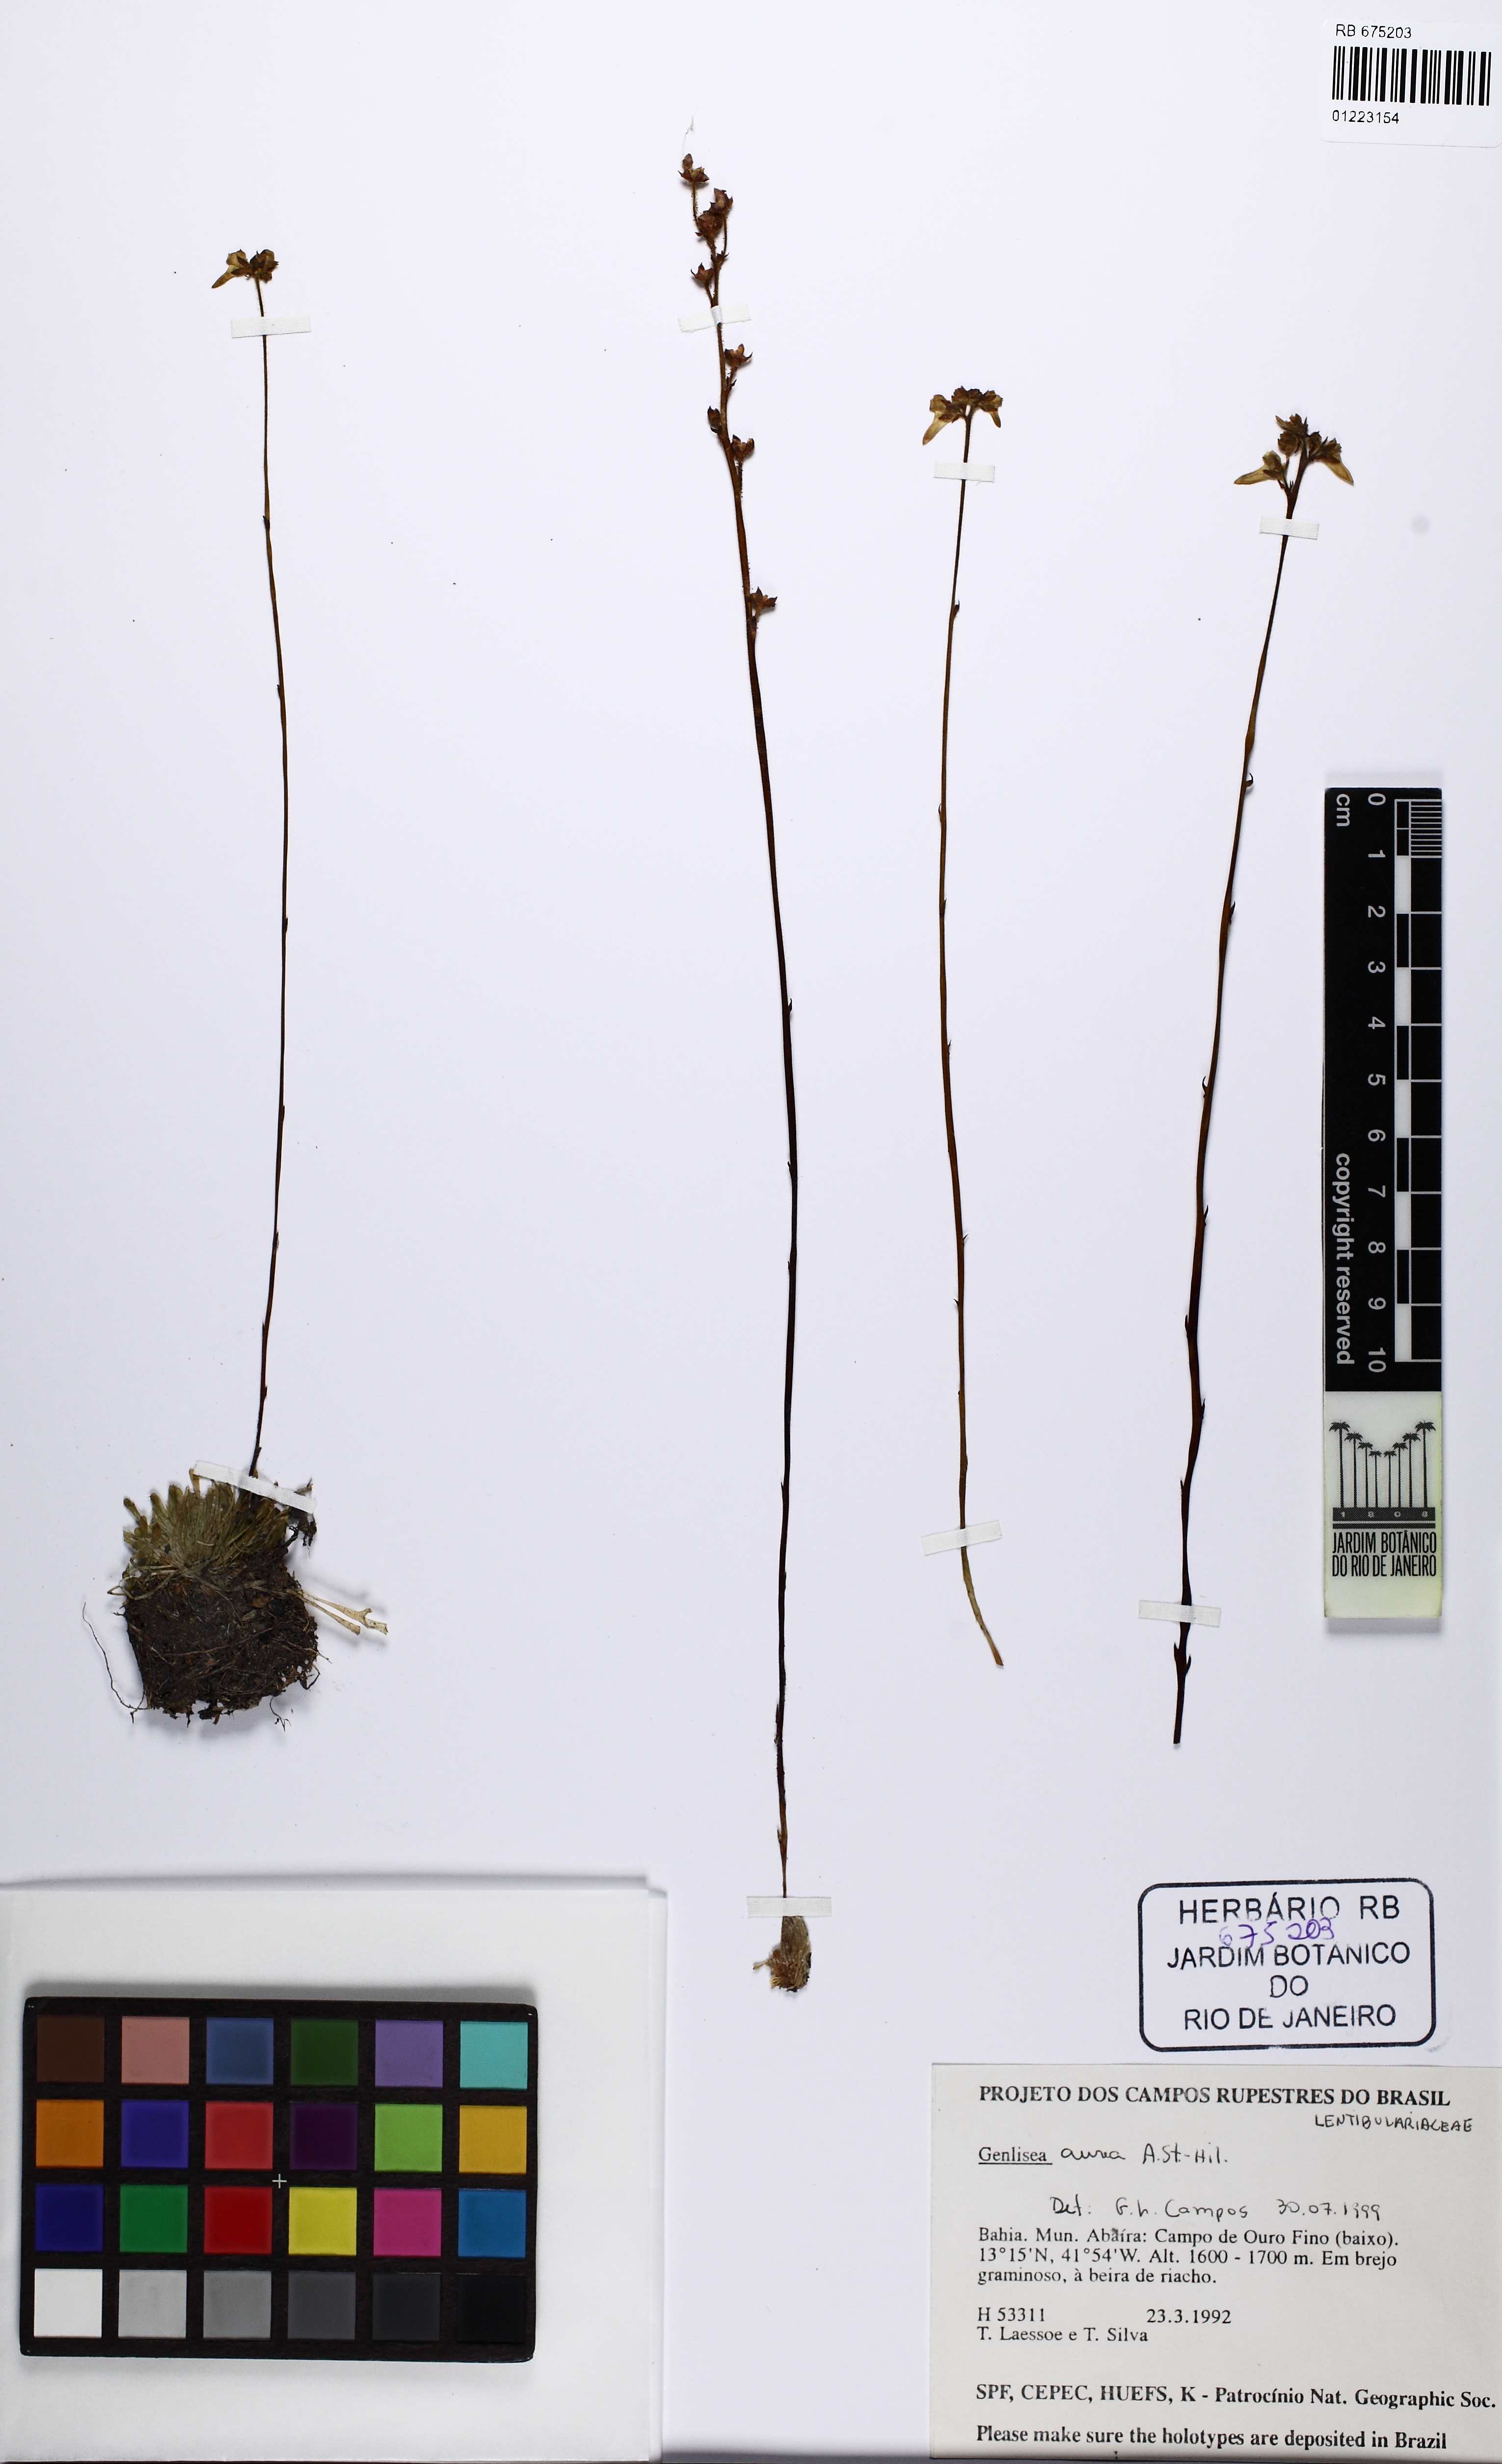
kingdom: Plantae
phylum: Tracheophyta
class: Magnoliopsida
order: Lamiales
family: Lentibulariaceae
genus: Genlisea
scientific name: Genlisea aurea
